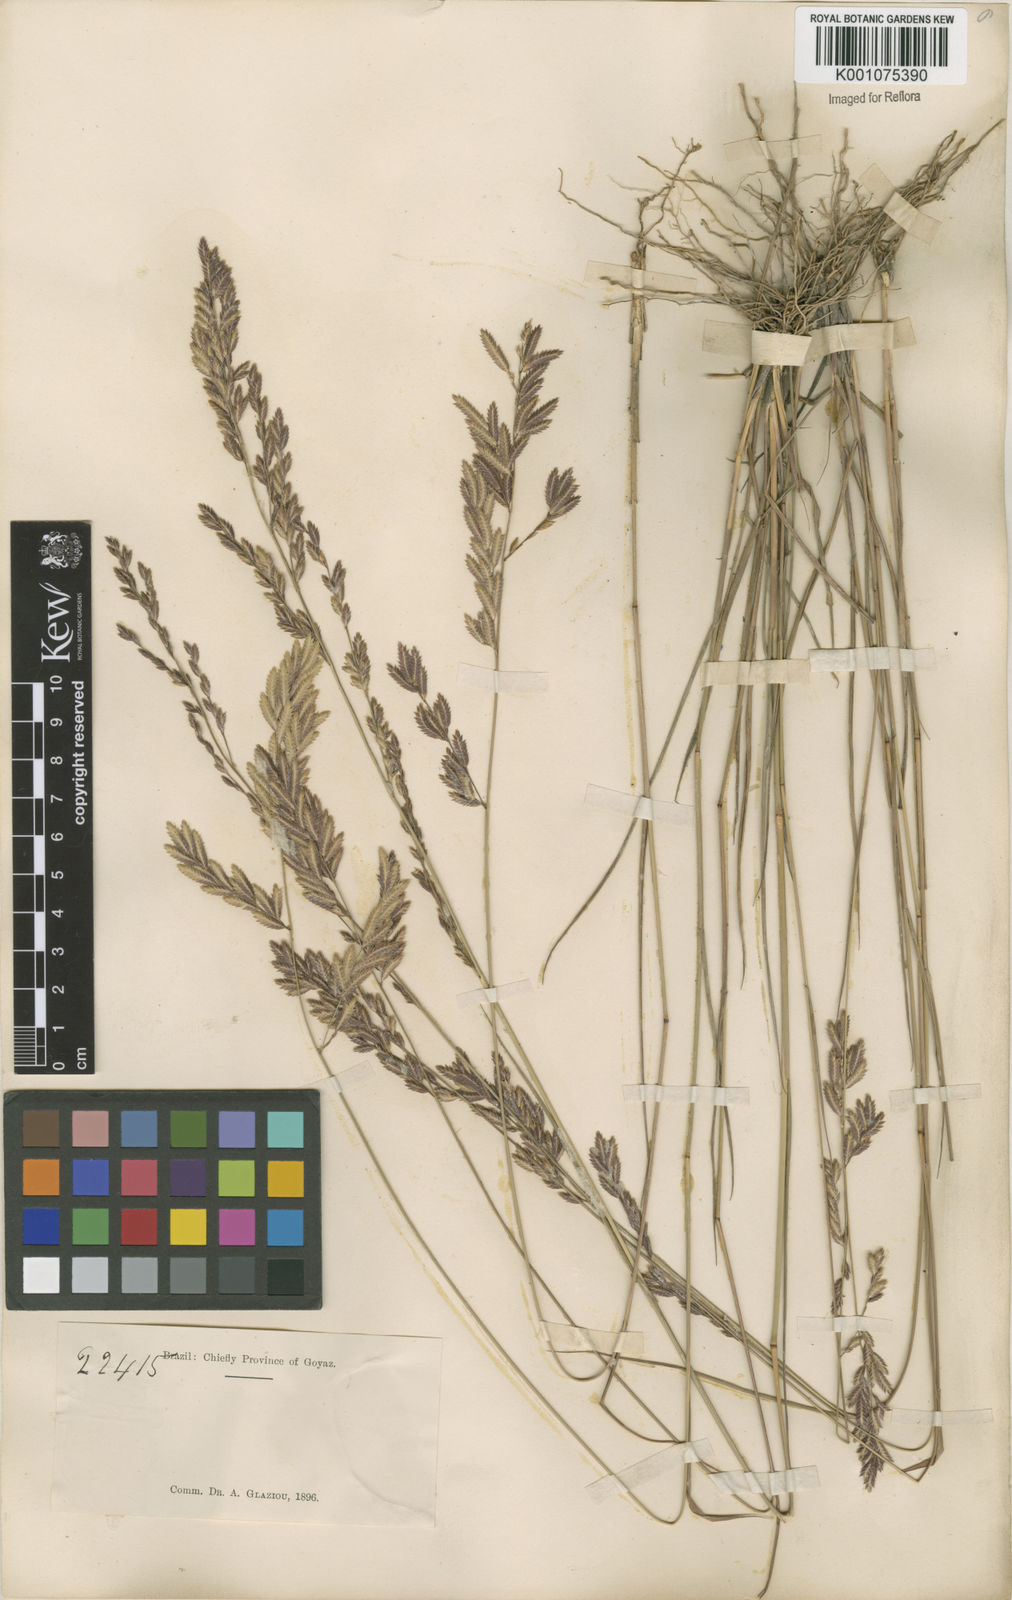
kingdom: Plantae
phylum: Tracheophyta
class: Liliopsida
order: Poales
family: Poaceae
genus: Eragrostis
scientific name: Eragrostis solida
